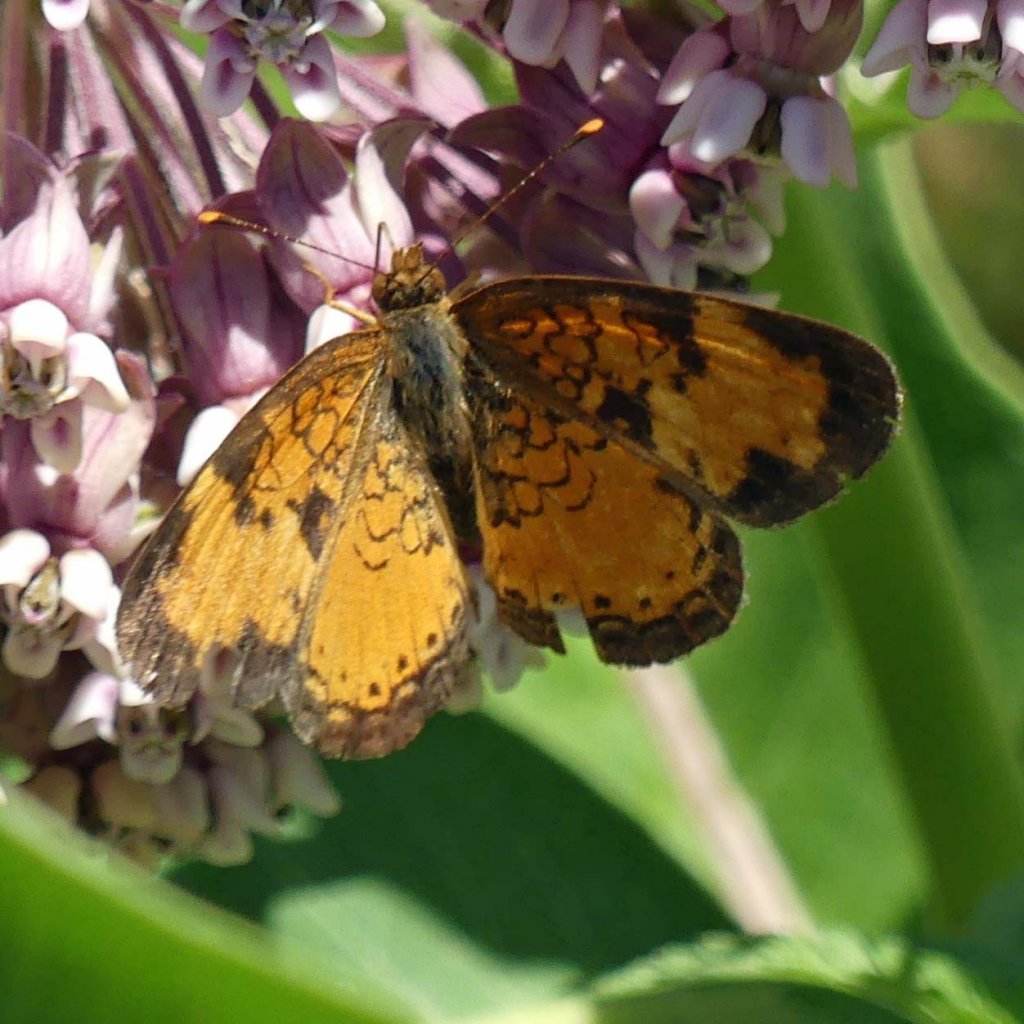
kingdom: Animalia
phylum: Arthropoda
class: Insecta
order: Lepidoptera
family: Nymphalidae
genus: Phyciodes
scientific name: Phyciodes tharos
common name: Northern Crescent
